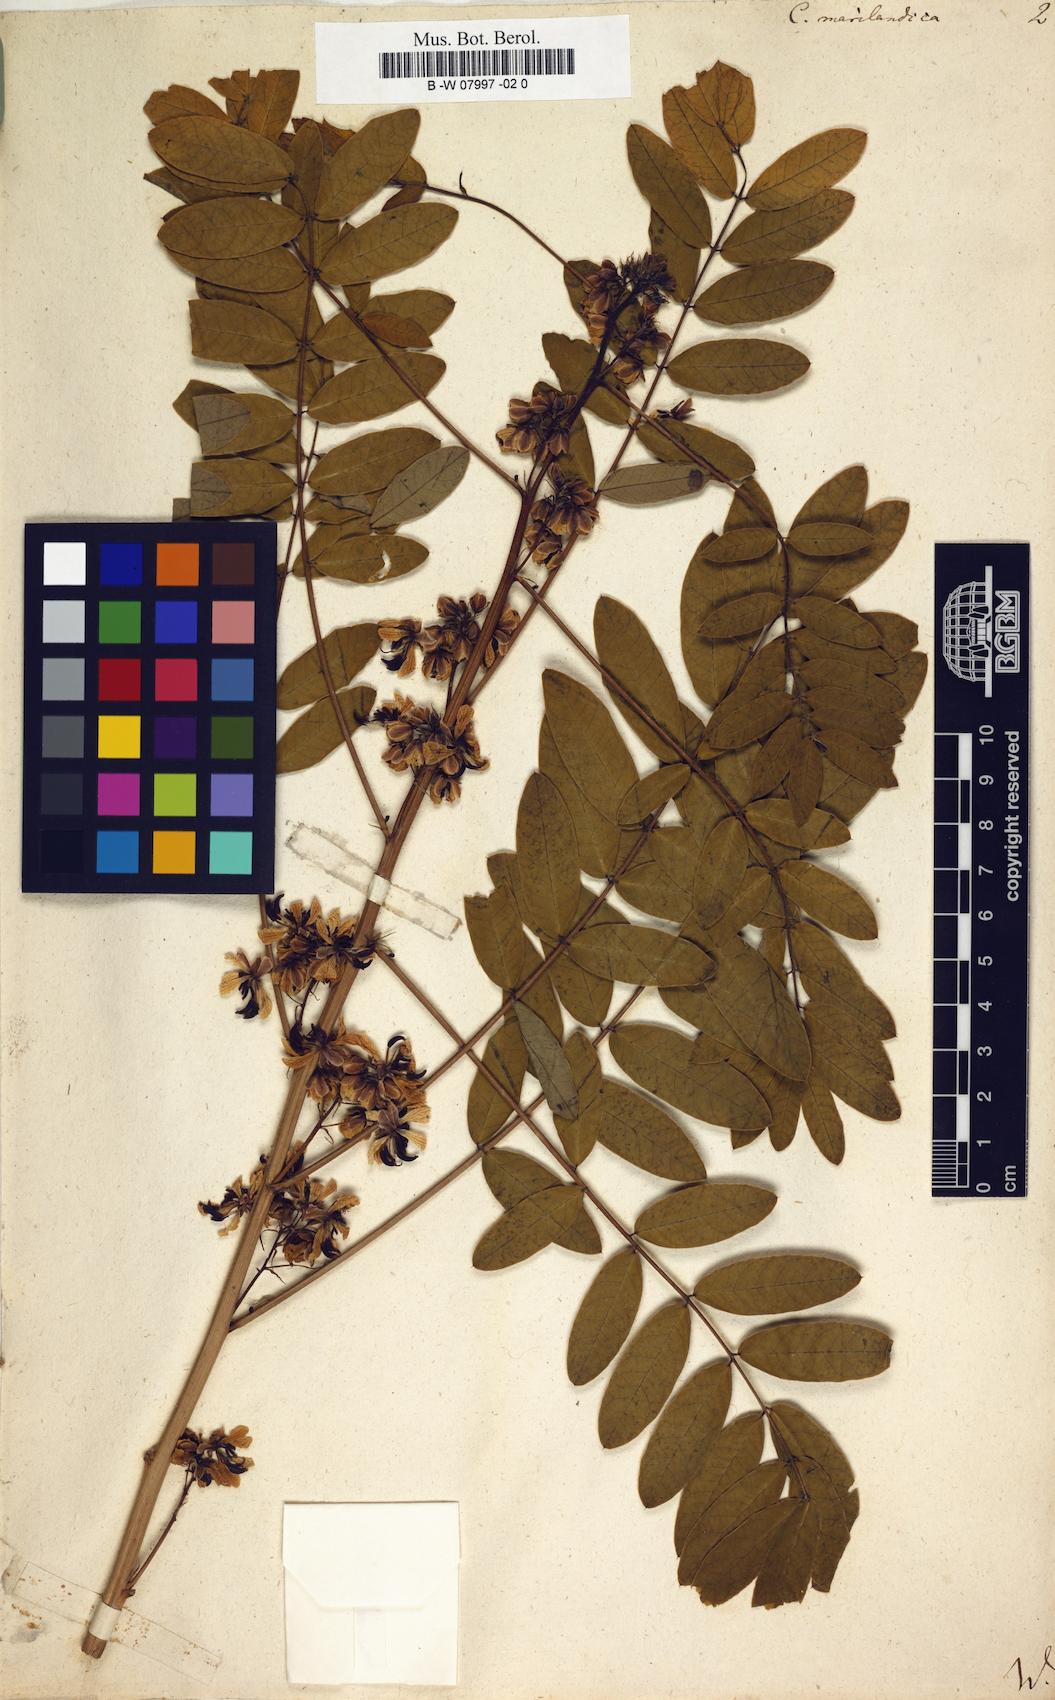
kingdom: Plantae
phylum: Tracheophyta
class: Magnoliopsida
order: Fabales
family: Fabaceae
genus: Senna
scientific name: Senna marilandica
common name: American senna
